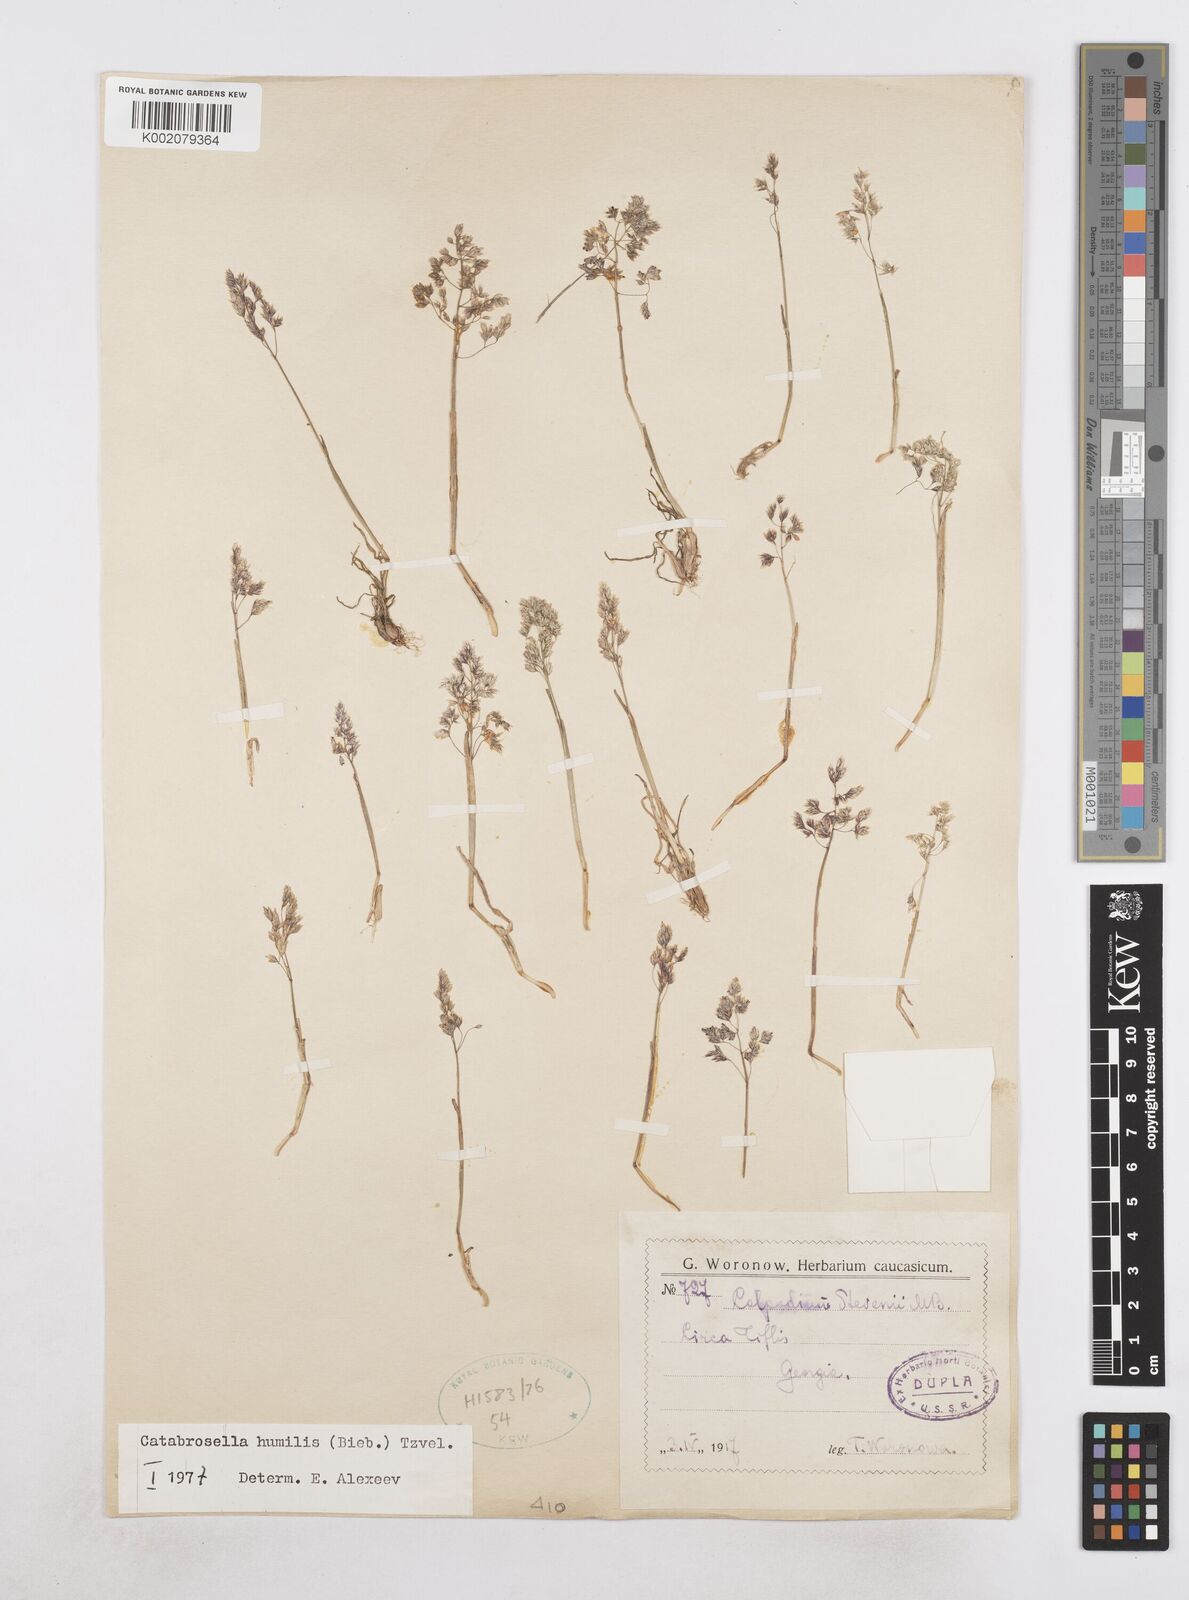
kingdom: Plantae
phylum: Tracheophyta
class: Liliopsida
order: Poales
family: Poaceae
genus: Catabrosella
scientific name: Catabrosella humilis
